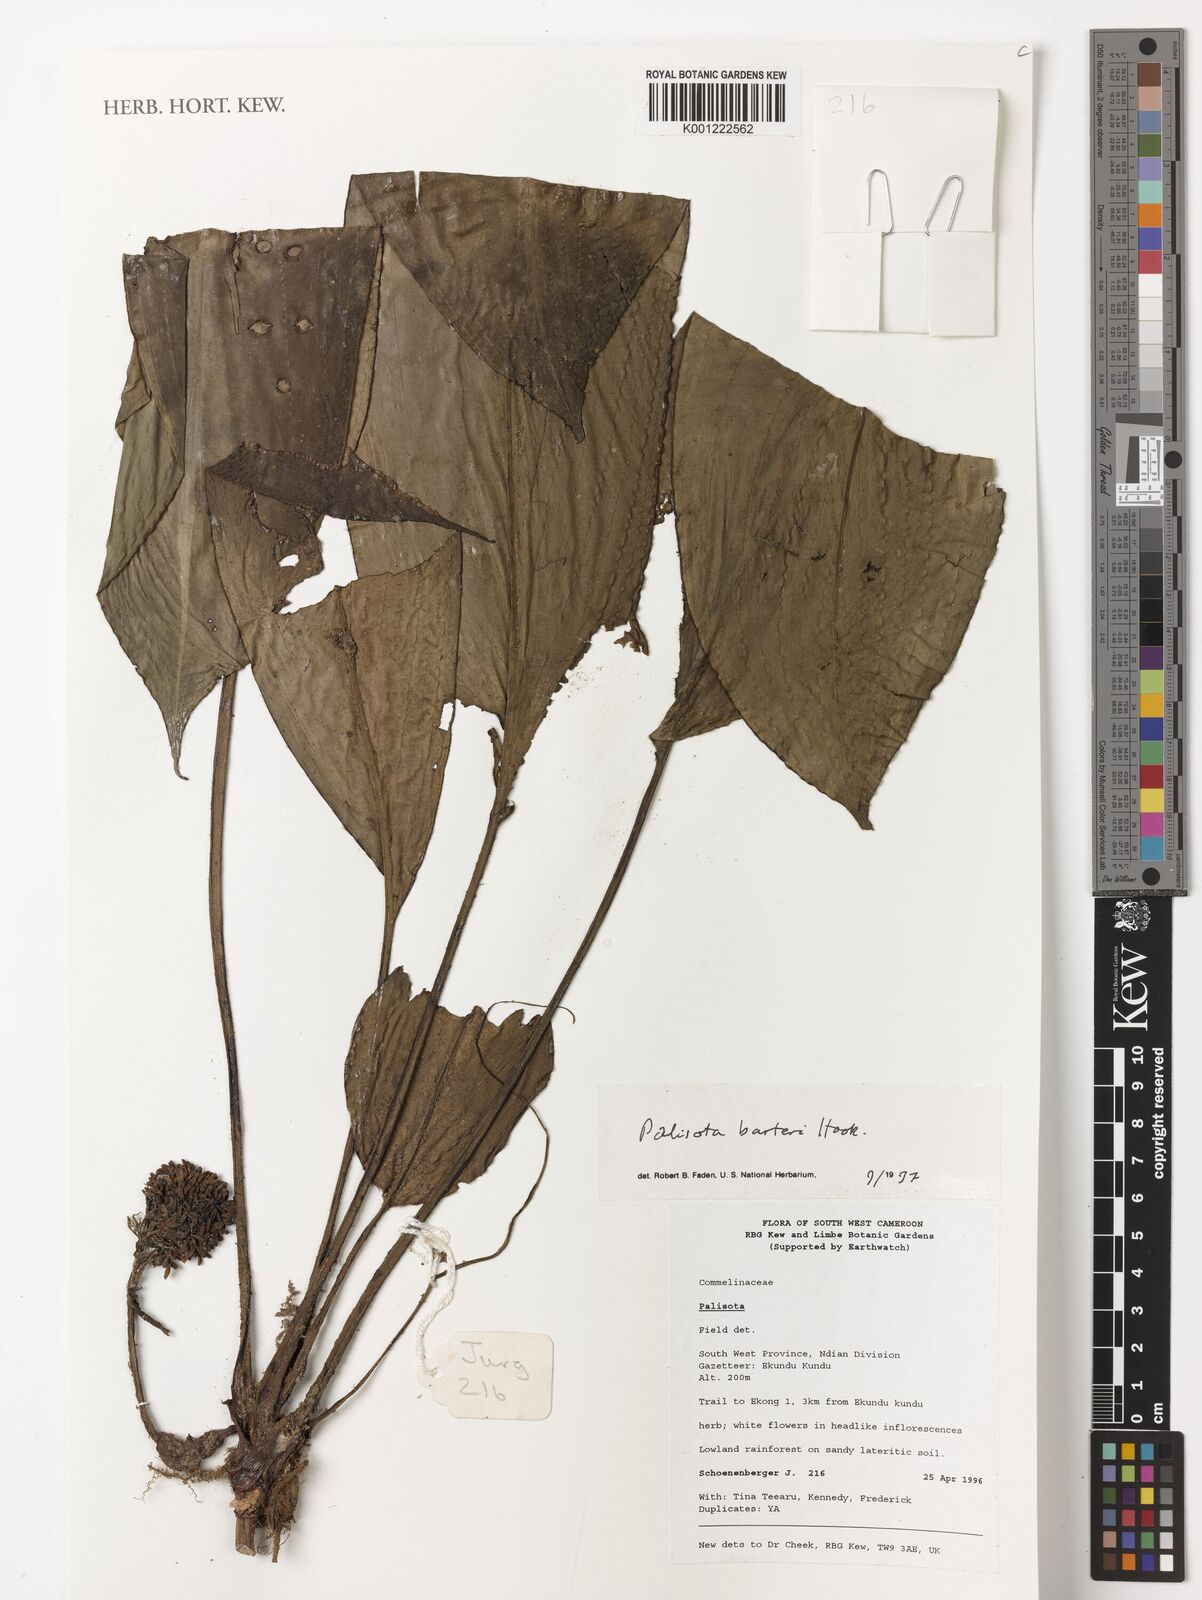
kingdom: Plantae
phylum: Tracheophyta
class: Liliopsida
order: Commelinales
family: Commelinaceae
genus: Palisota
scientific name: Palisota barteri
